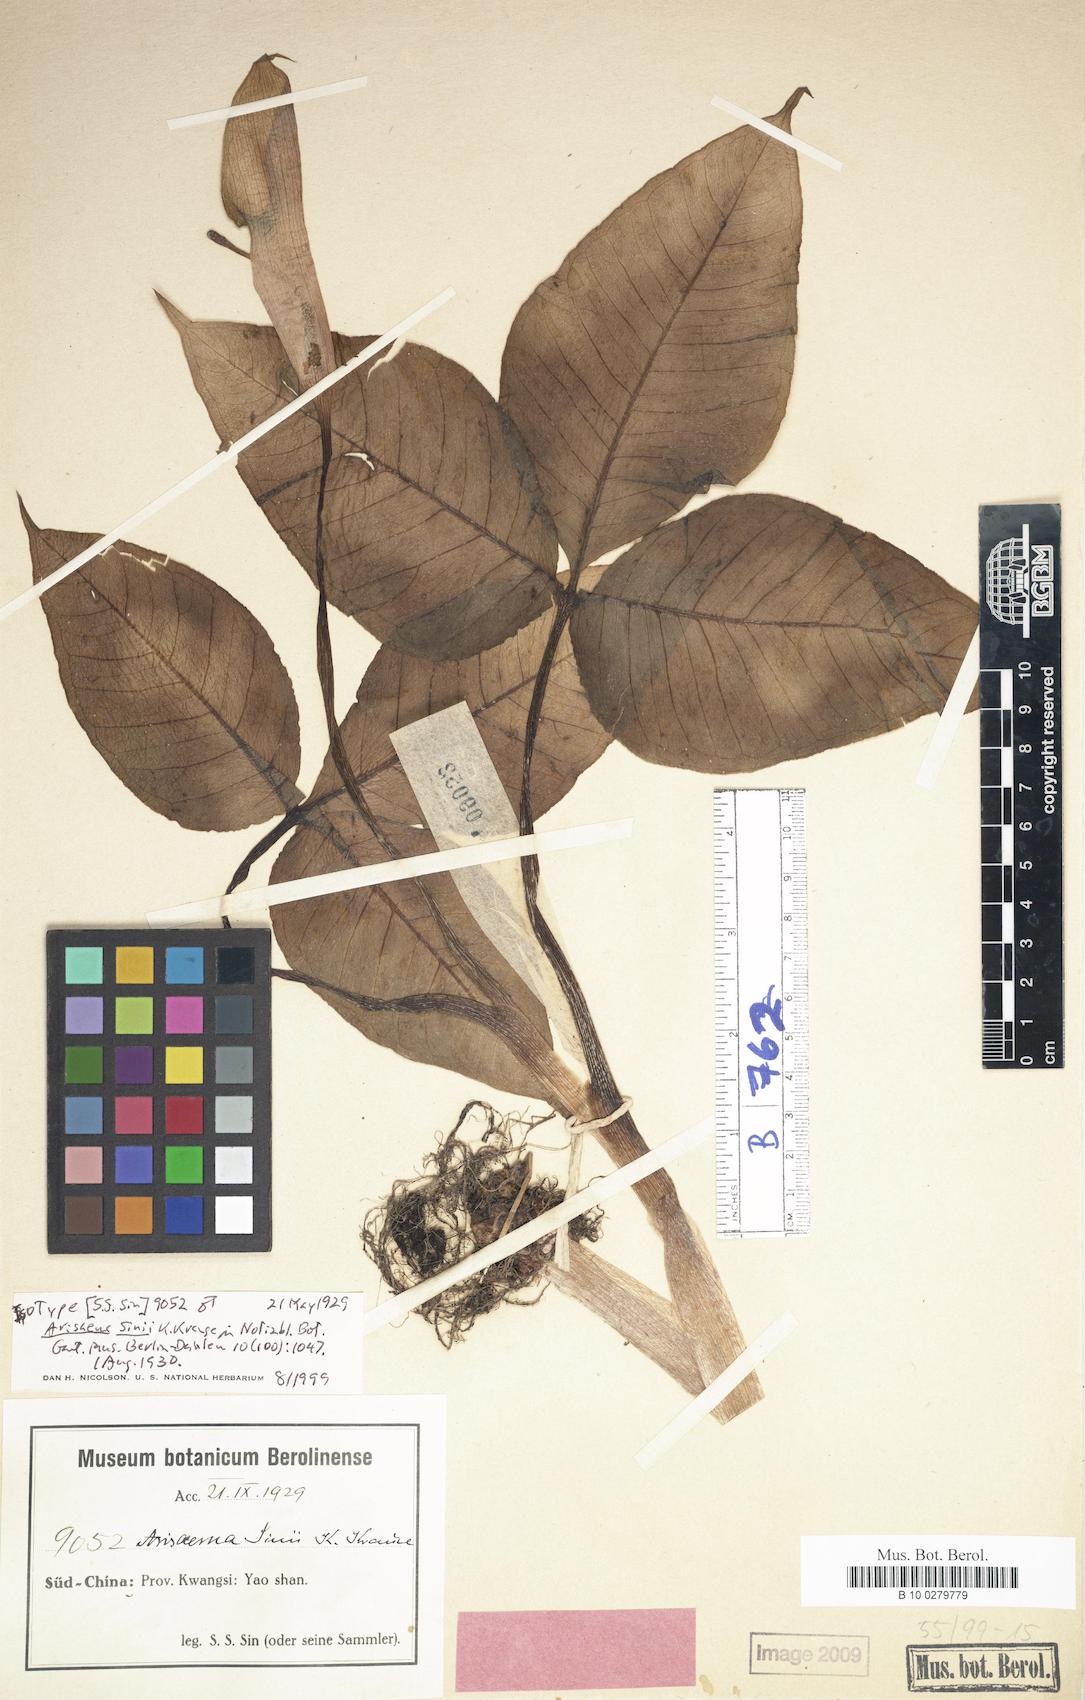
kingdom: Plantae
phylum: Tracheophyta
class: Liliopsida
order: Alismatales
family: Araceae
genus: Arisaema
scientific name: Arisaema sinii
